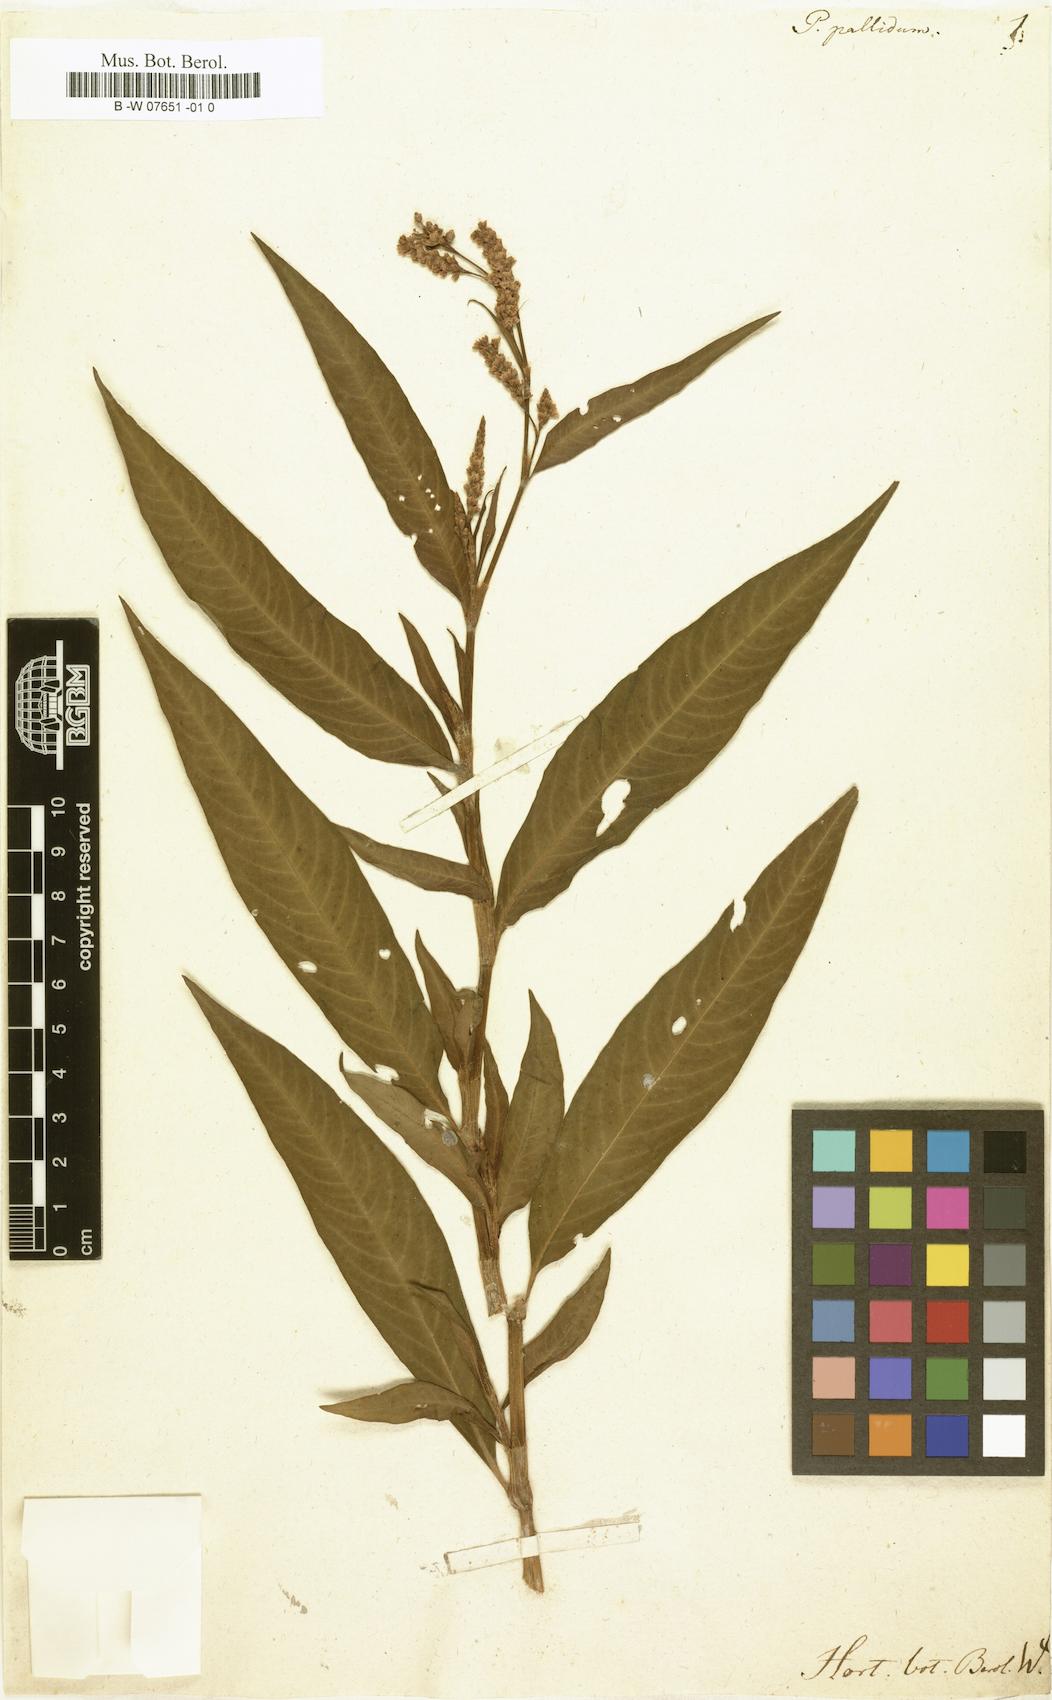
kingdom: Plantae
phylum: Tracheophyta
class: Magnoliopsida
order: Caryophyllales
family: Polygonaceae
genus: Persicaria
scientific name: Persicaria lapathifolia
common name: Curlytop knotweed
